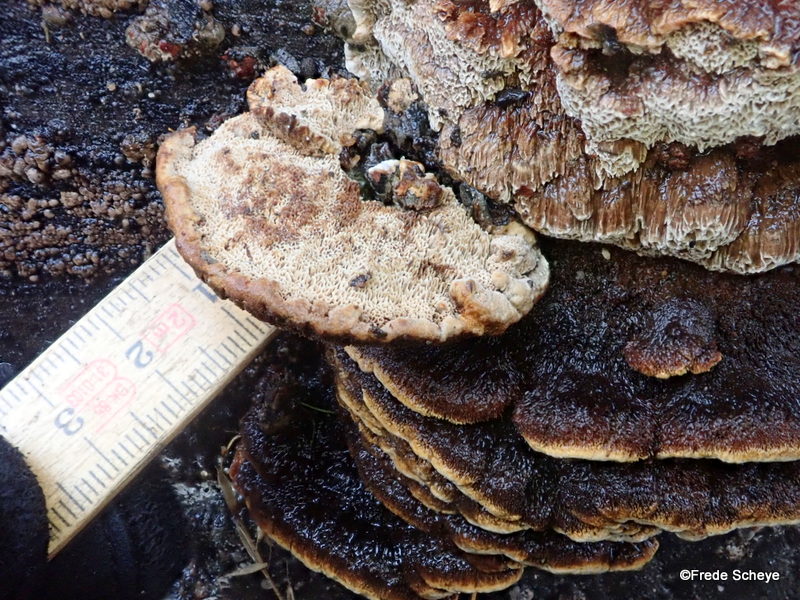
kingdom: Fungi
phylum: Basidiomycota
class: Agaricomycetes
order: Hymenochaetales
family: Hymenochaetaceae
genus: Mensularia
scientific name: Mensularia nodulosa
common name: bøge-spejlporesvamp
